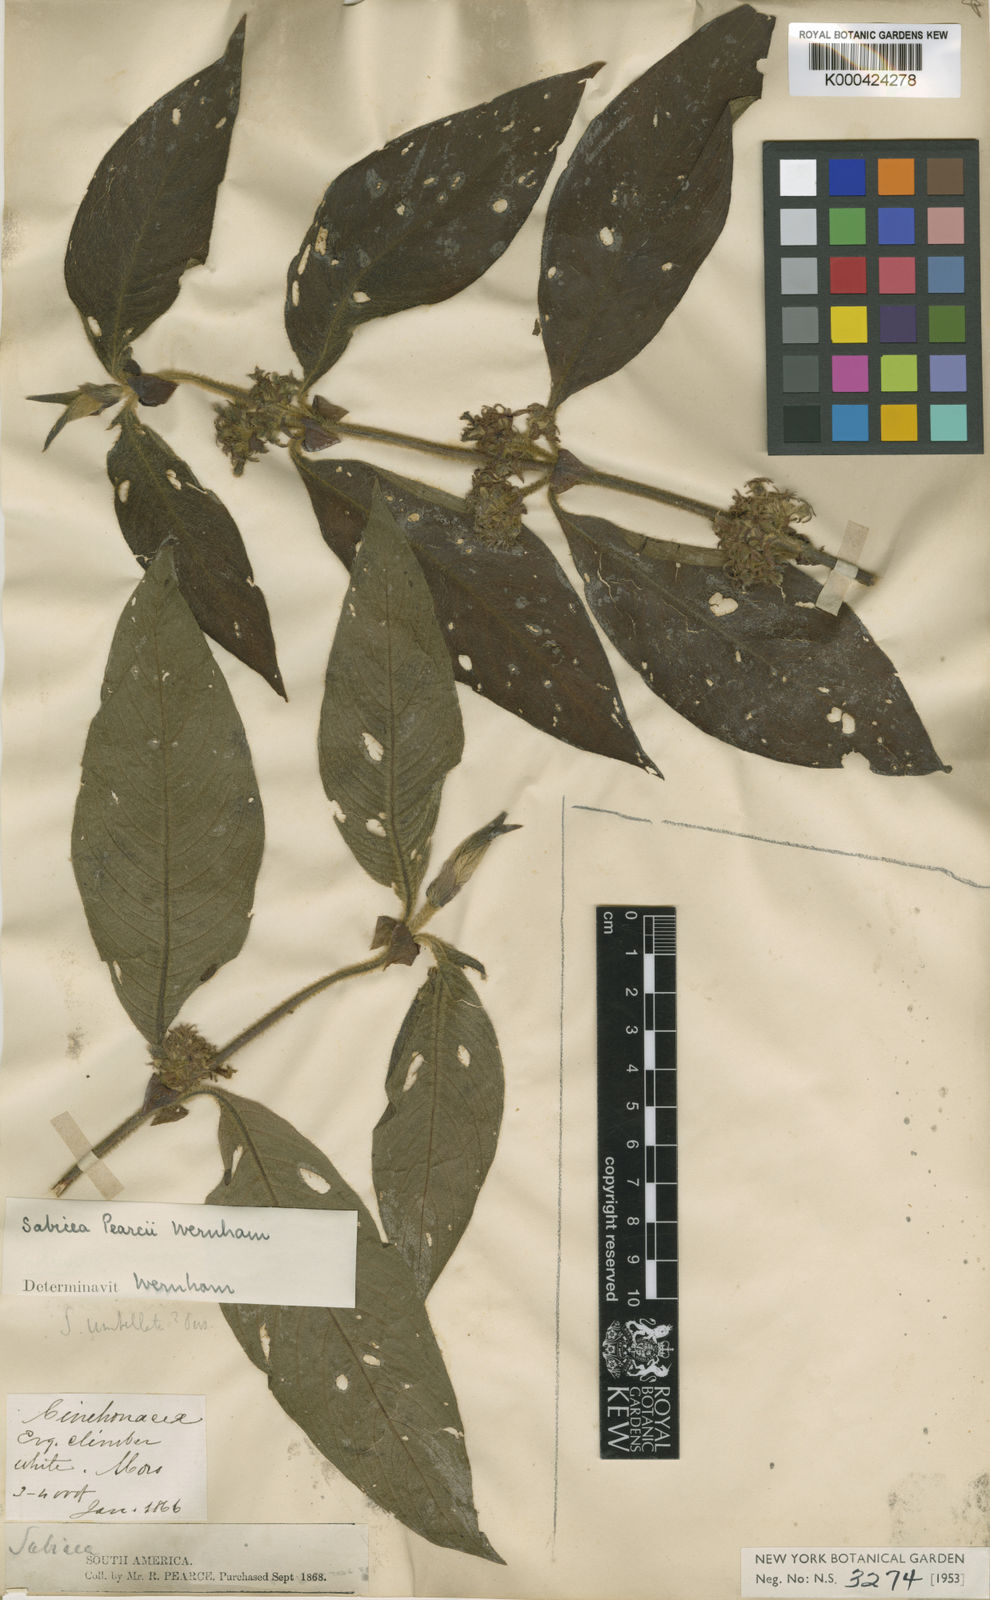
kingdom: Plantae
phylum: Tracheophyta
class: Magnoliopsida
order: Gentianales
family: Rubiaceae
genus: Sabicea
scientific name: Sabicea pearcei
